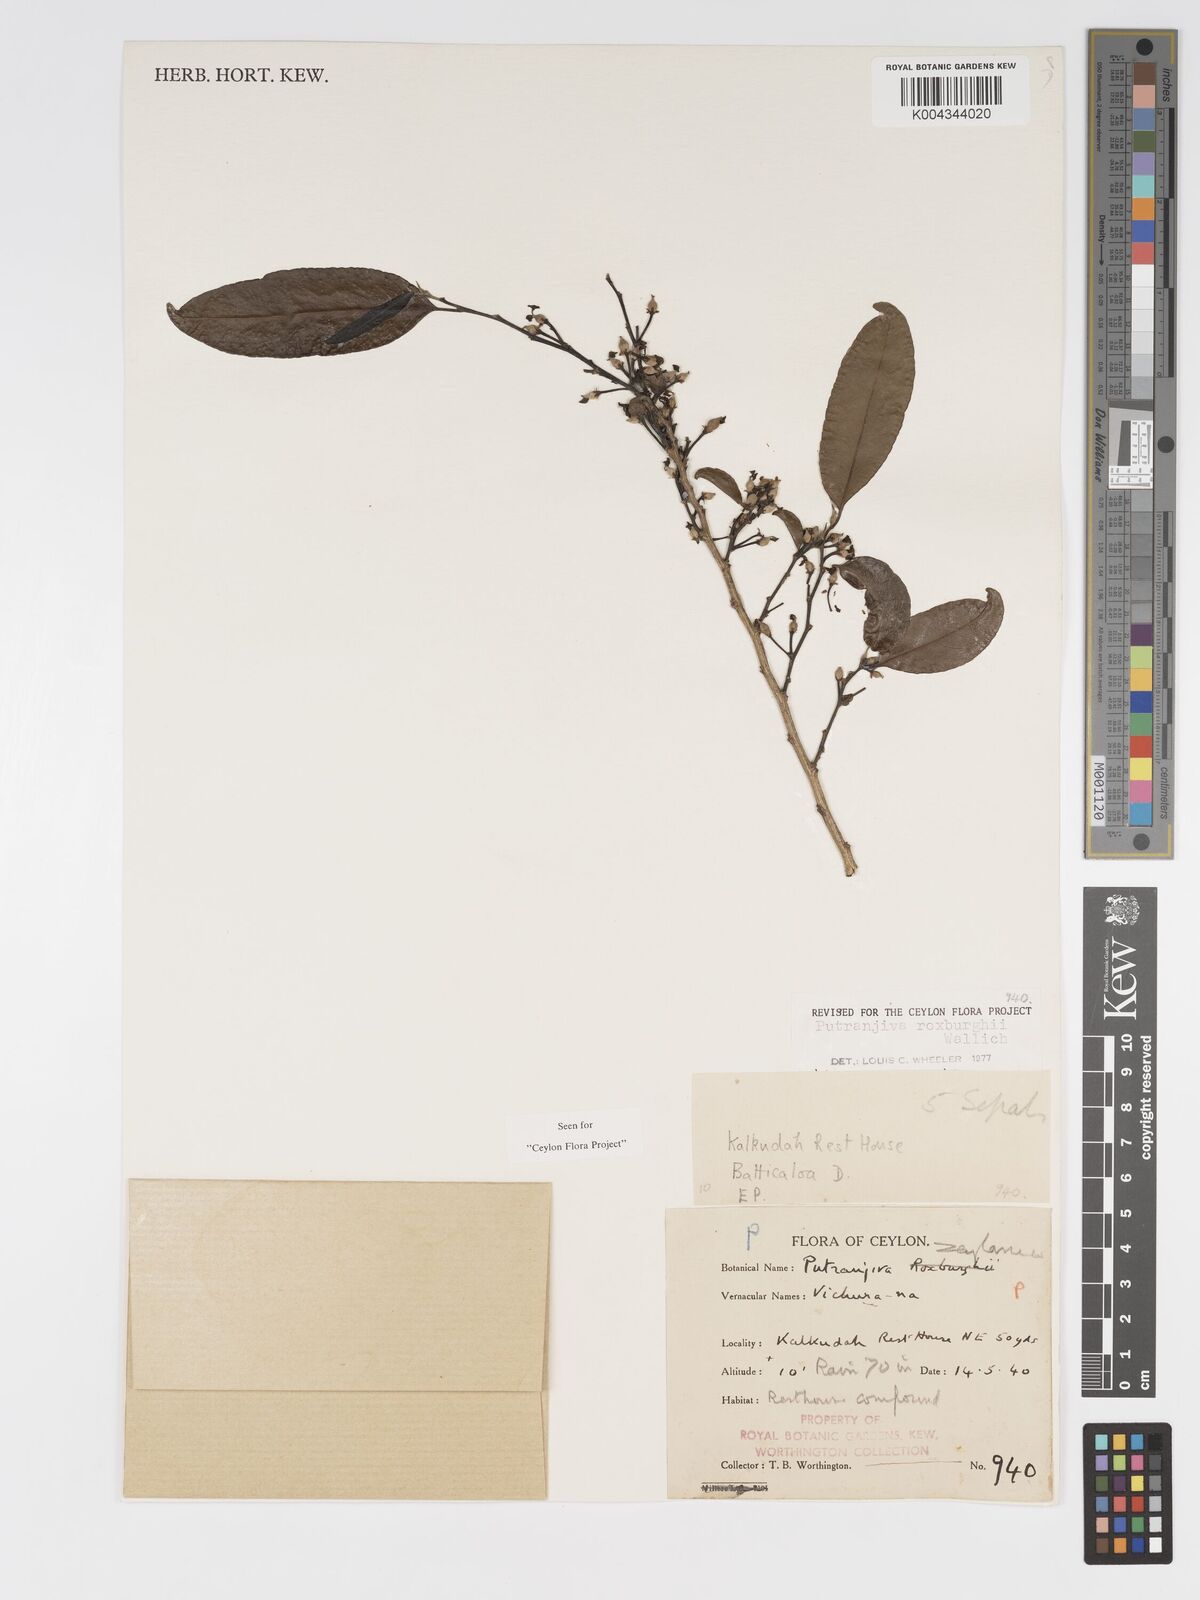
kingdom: Plantae
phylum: Tracheophyta
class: Magnoliopsida
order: Malpighiales
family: Putranjivaceae
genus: Putranjiva
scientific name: Putranjiva roxburghii
